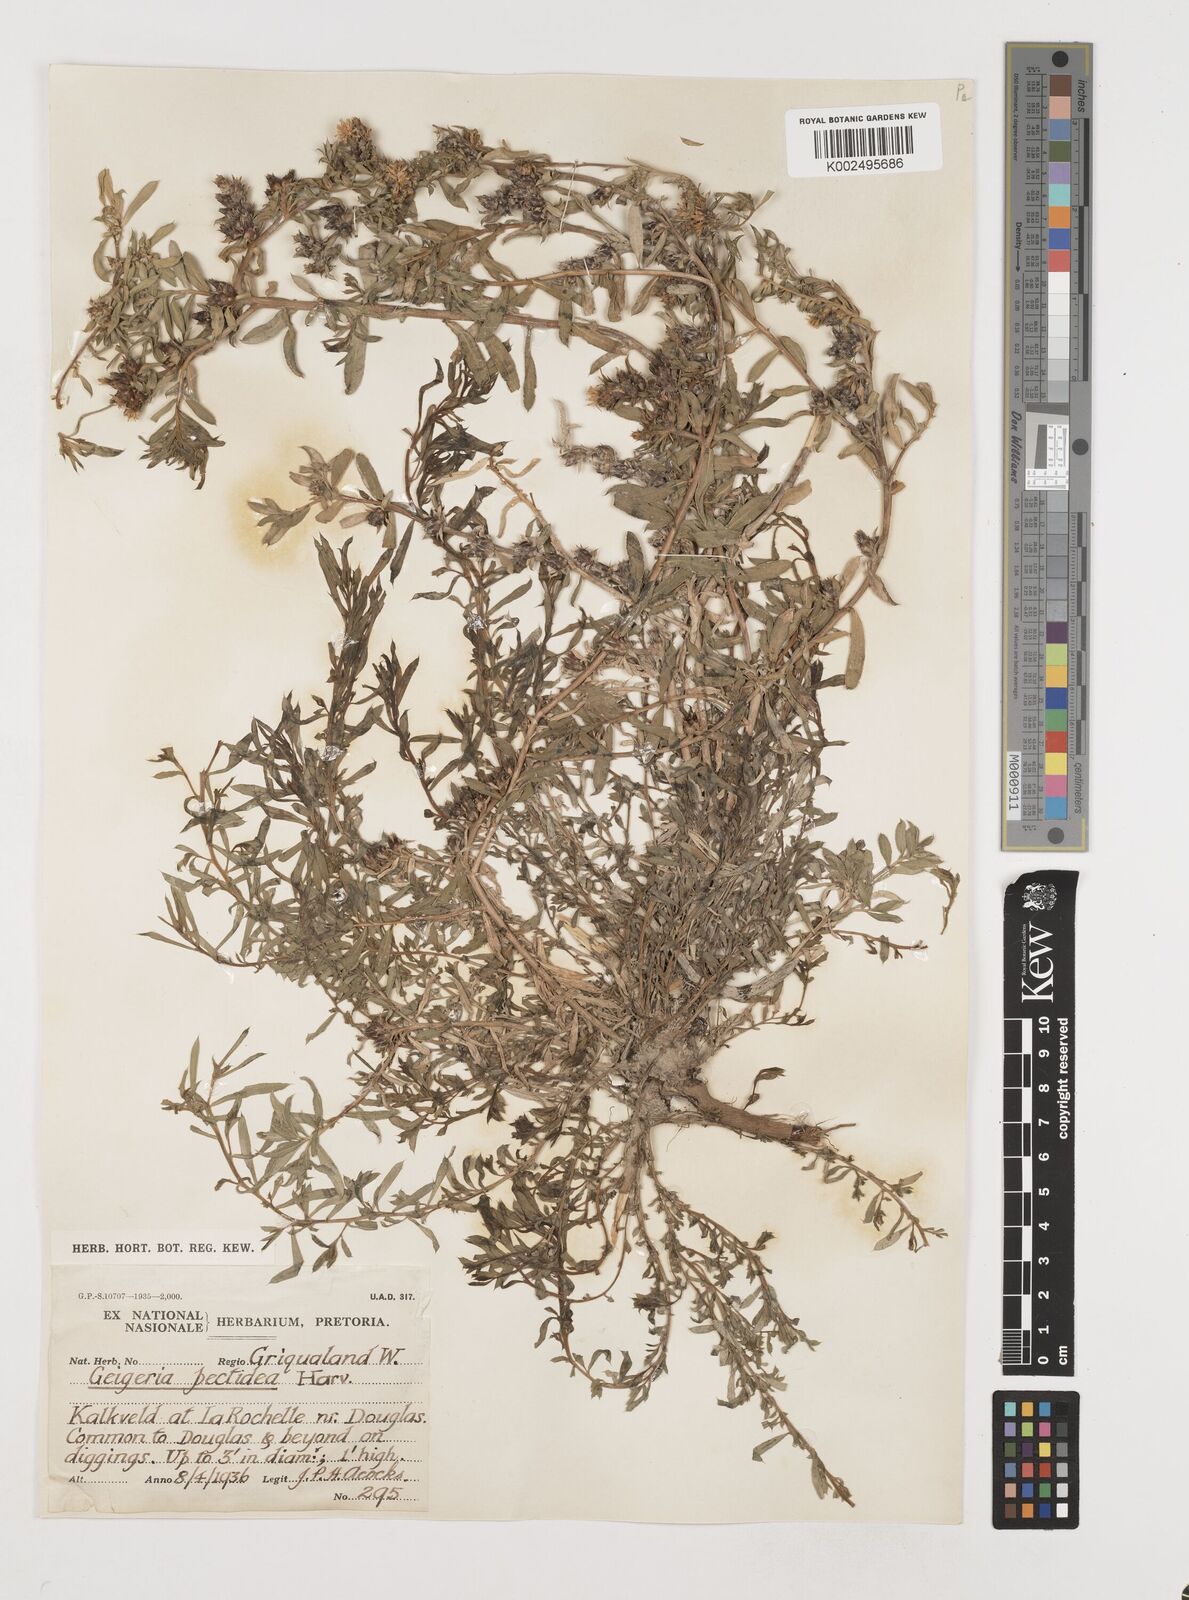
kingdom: Plantae
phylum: Tracheophyta
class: Magnoliopsida
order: Asterales
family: Asteraceae
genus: Geigeria
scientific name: Geigeria pectidea
